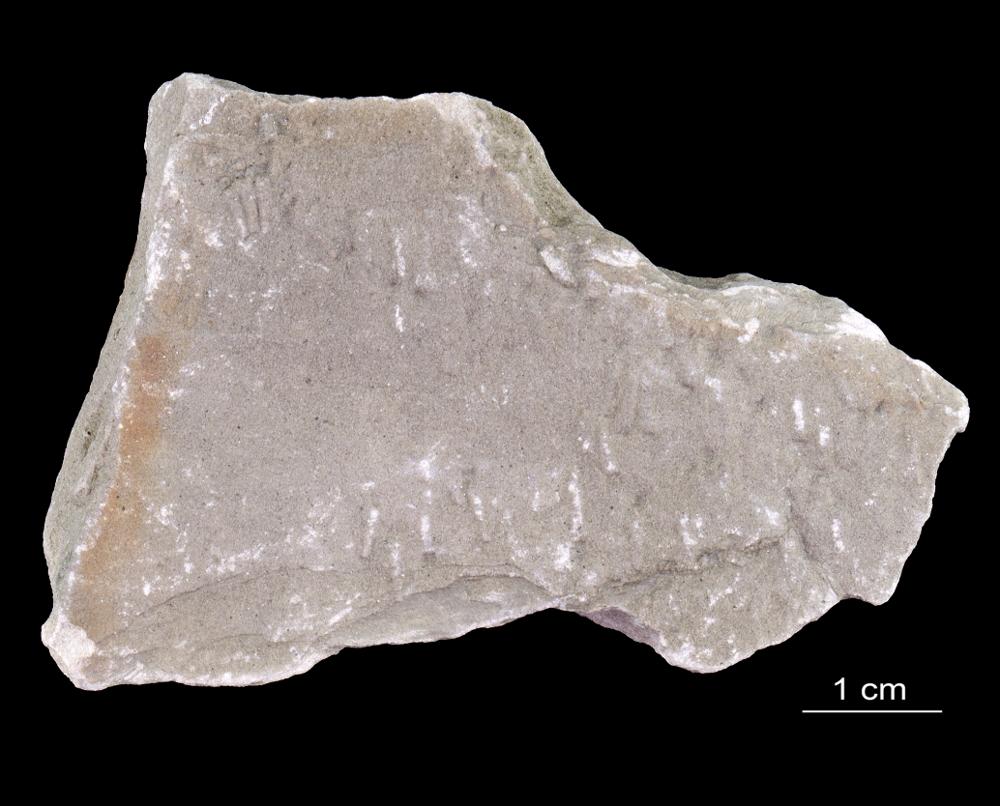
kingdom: Animalia
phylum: Annelida
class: Polychaeta
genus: Volborthella
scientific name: Volborthella tenuis
